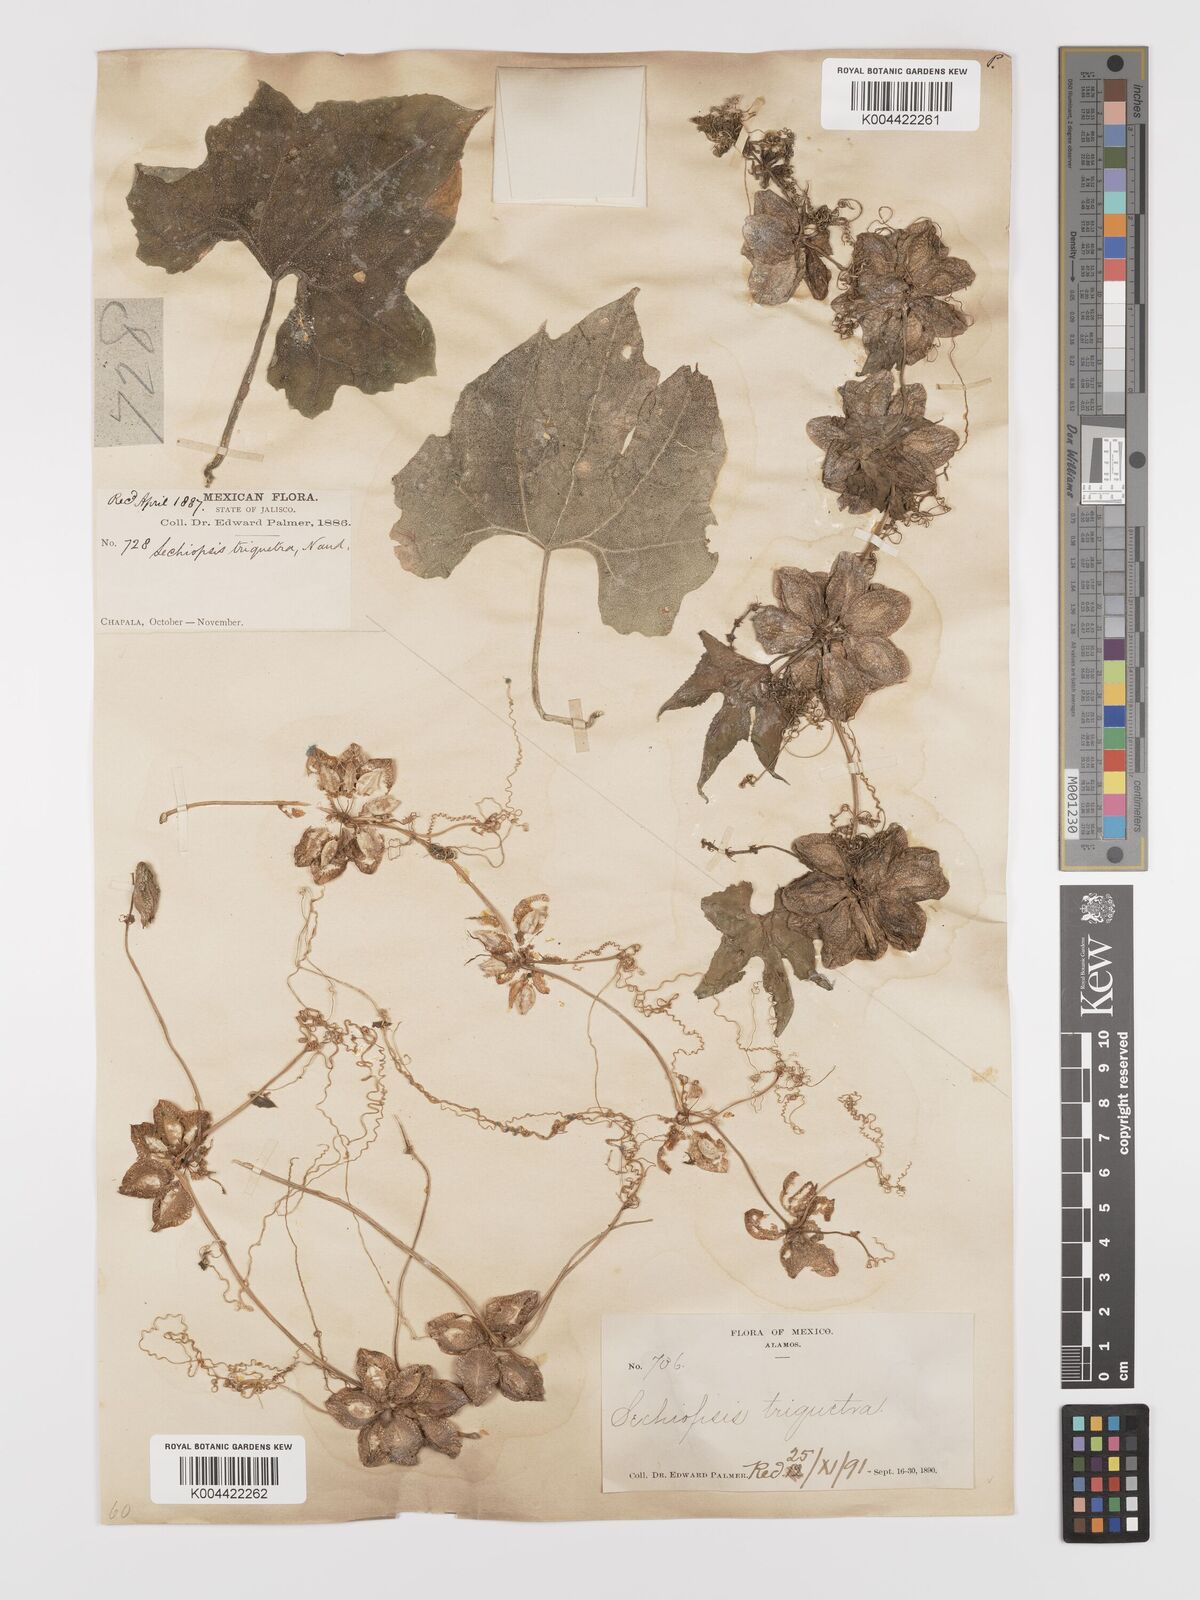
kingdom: Plantae
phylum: Tracheophyta
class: Magnoliopsida
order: Cucurbitales
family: Cucurbitaceae
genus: Sechiopsis
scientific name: Sechiopsis triqueter
